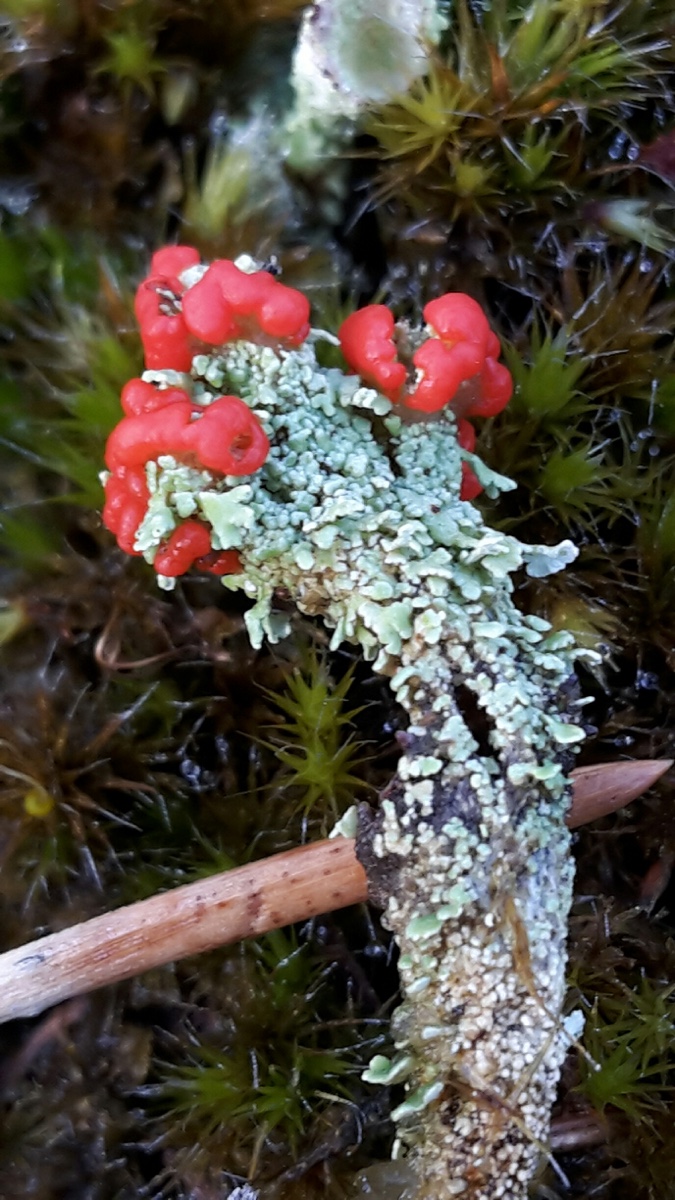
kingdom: Fungi
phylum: Ascomycota
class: Lecanoromycetes
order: Lecanorales
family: Cladoniaceae
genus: Cladonia
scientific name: Cladonia floerkeana
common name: lakrød bægerlav
